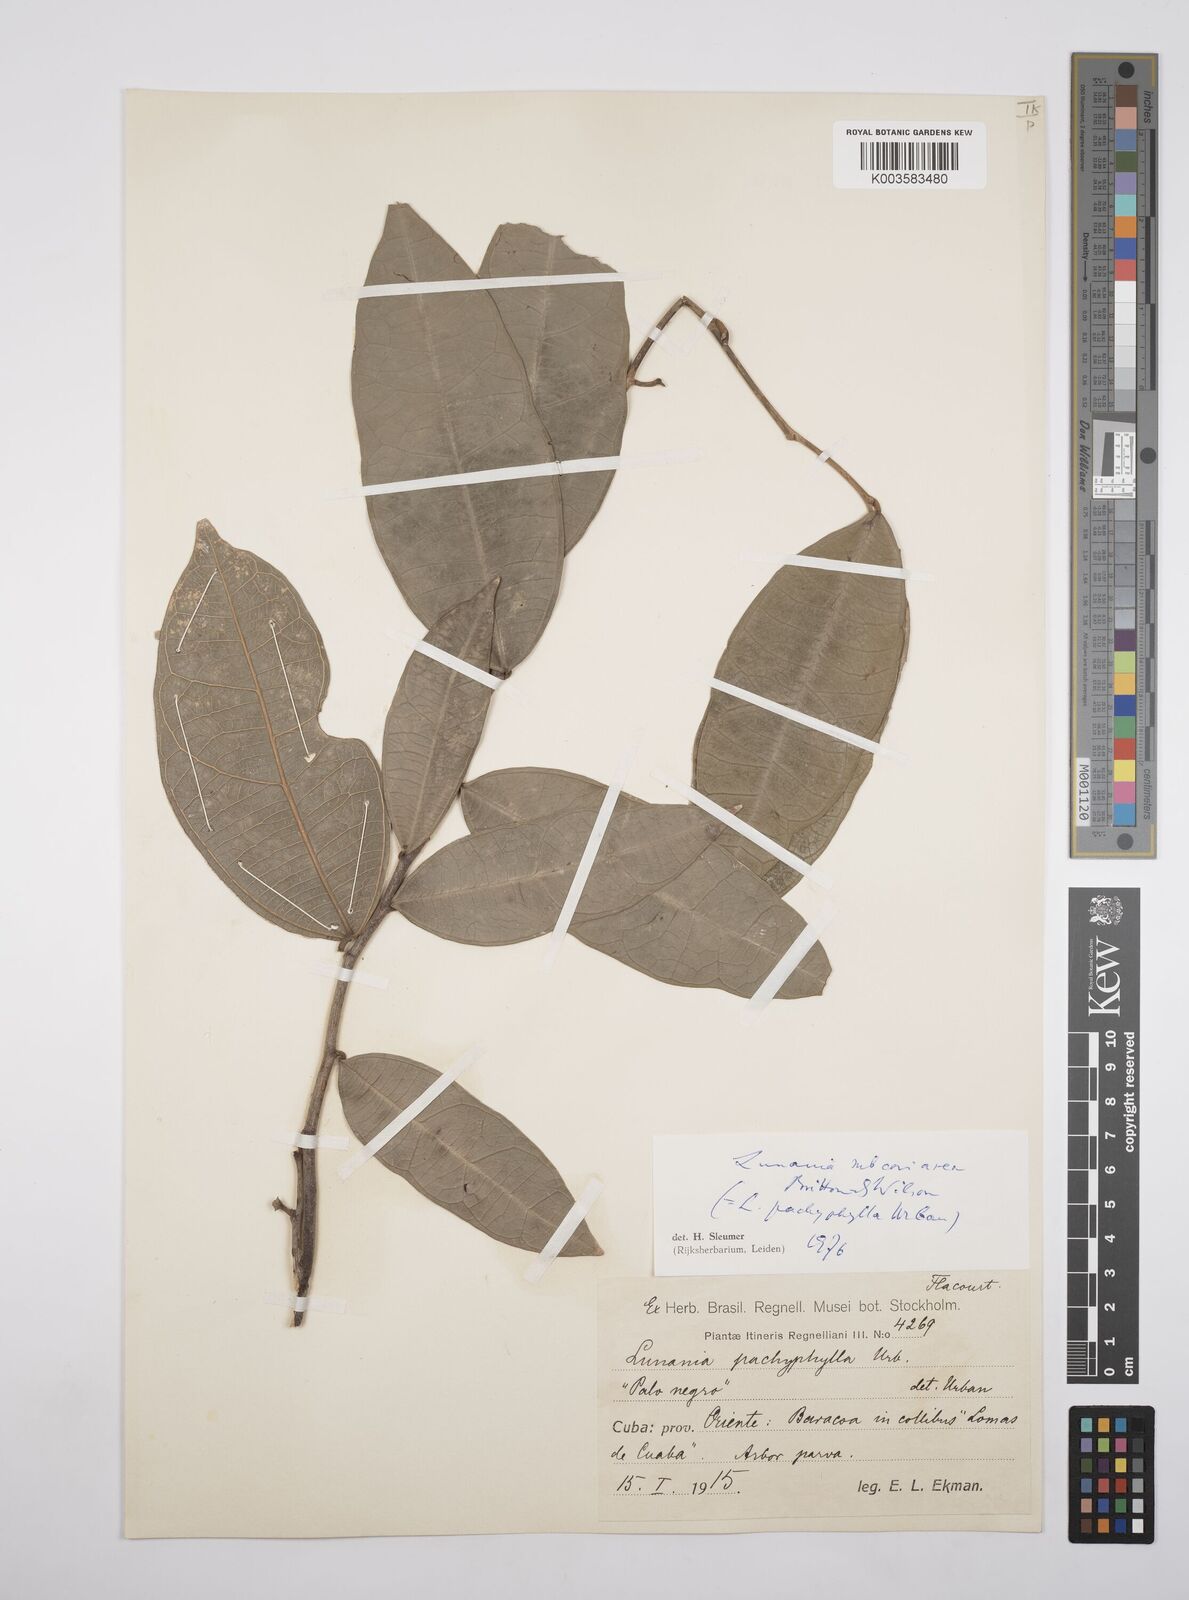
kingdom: Plantae
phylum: Tracheophyta
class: Magnoliopsida
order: Malpighiales
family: Salicaceae
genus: Lunania
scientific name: Lunania subcoriacea
